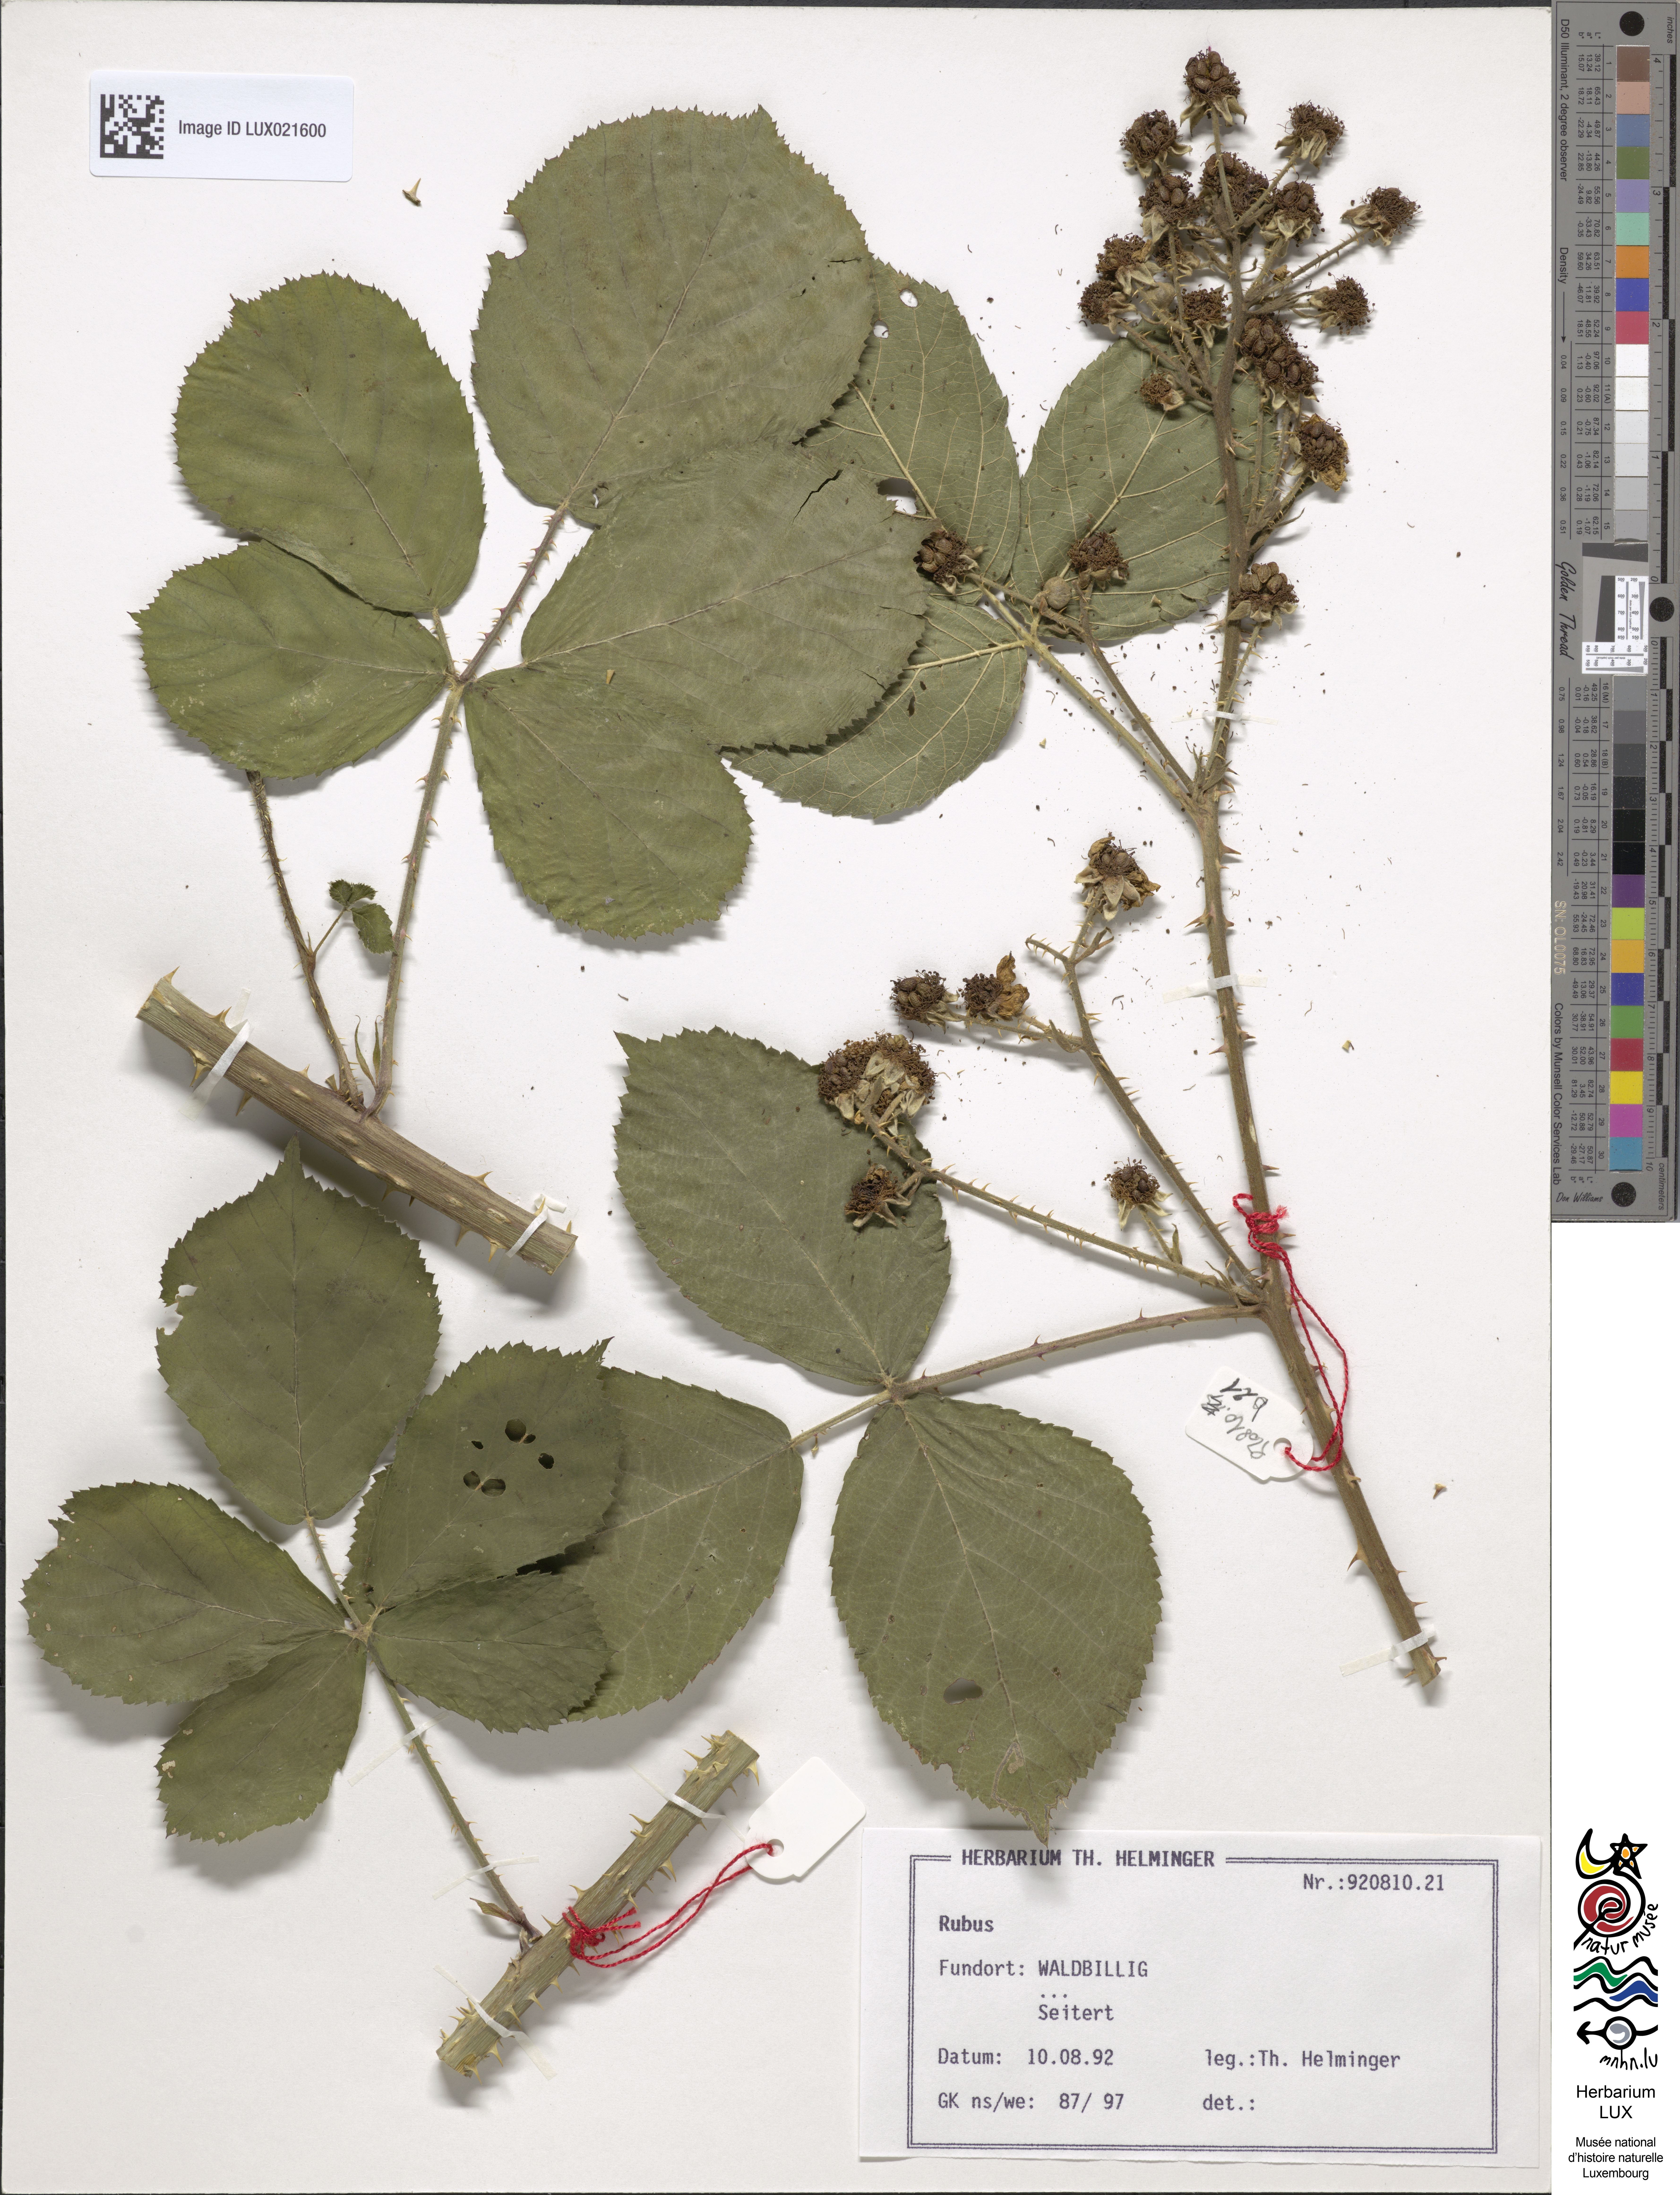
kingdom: Plantae
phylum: Tracheophyta
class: Magnoliopsida
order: Rosales
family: Rosaceae
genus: Rubus
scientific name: Rubus
